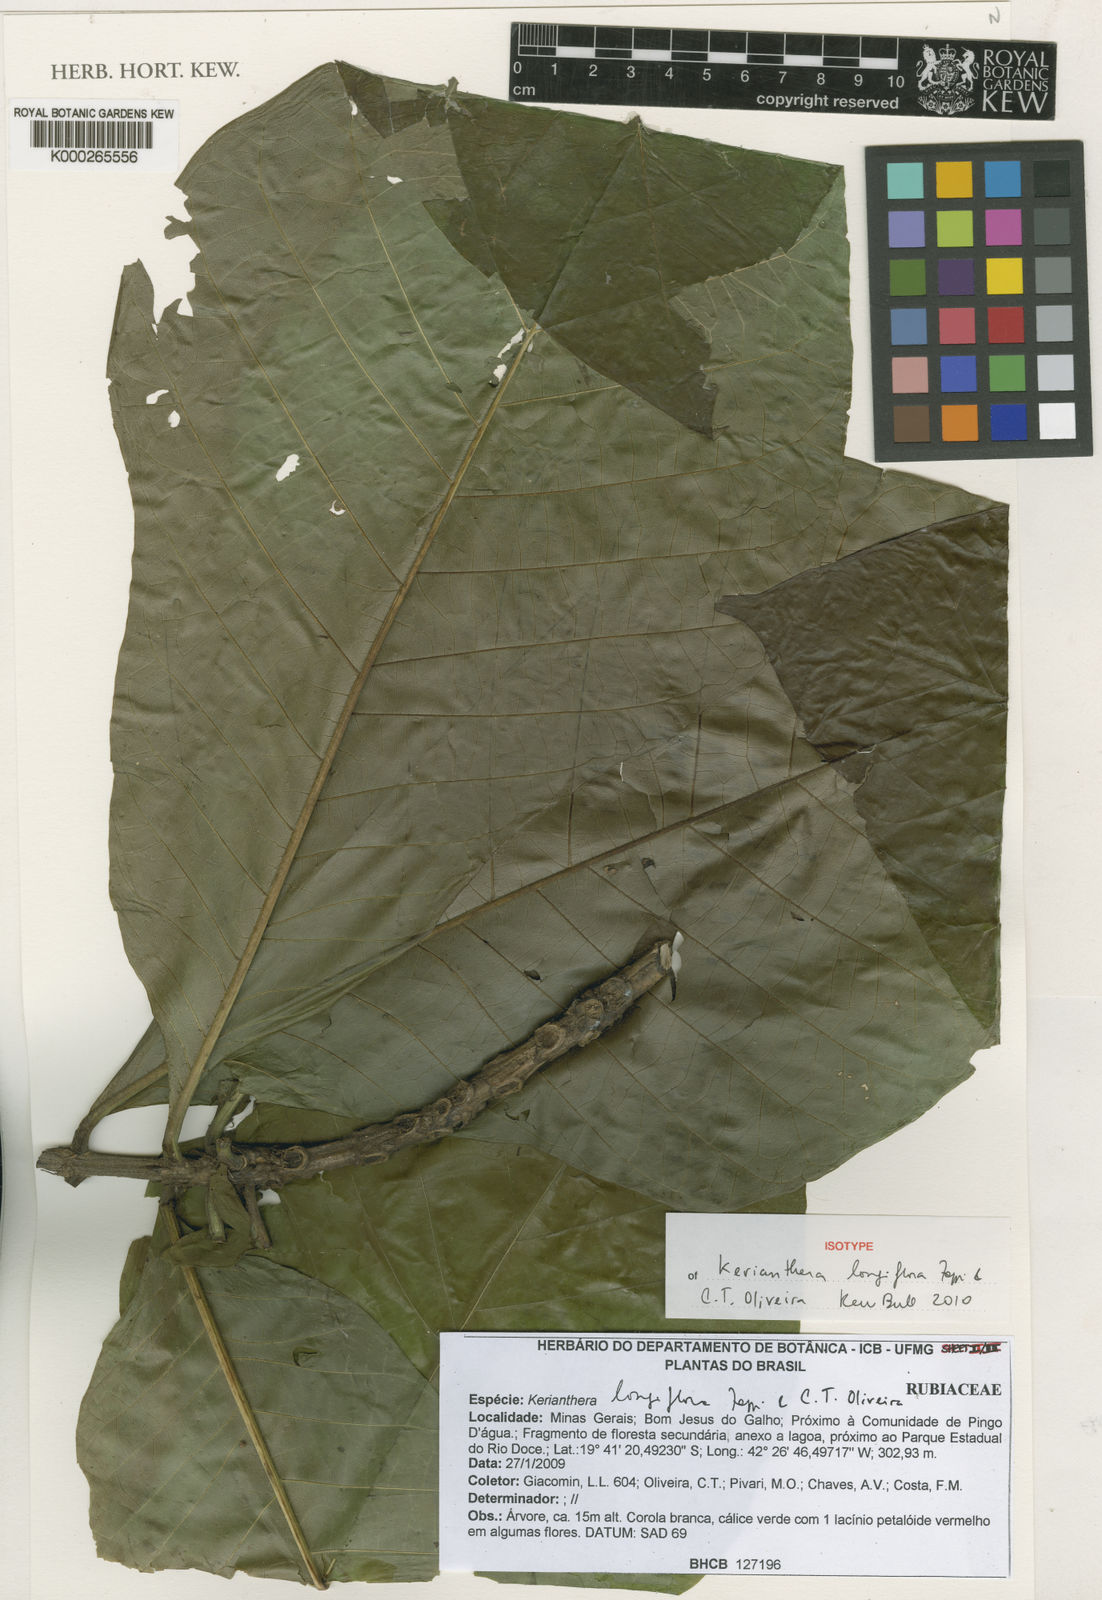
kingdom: Plantae
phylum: Tracheophyta
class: Magnoliopsida
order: Gentianales
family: Rubiaceae
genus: Kerianthera
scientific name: Kerianthera
